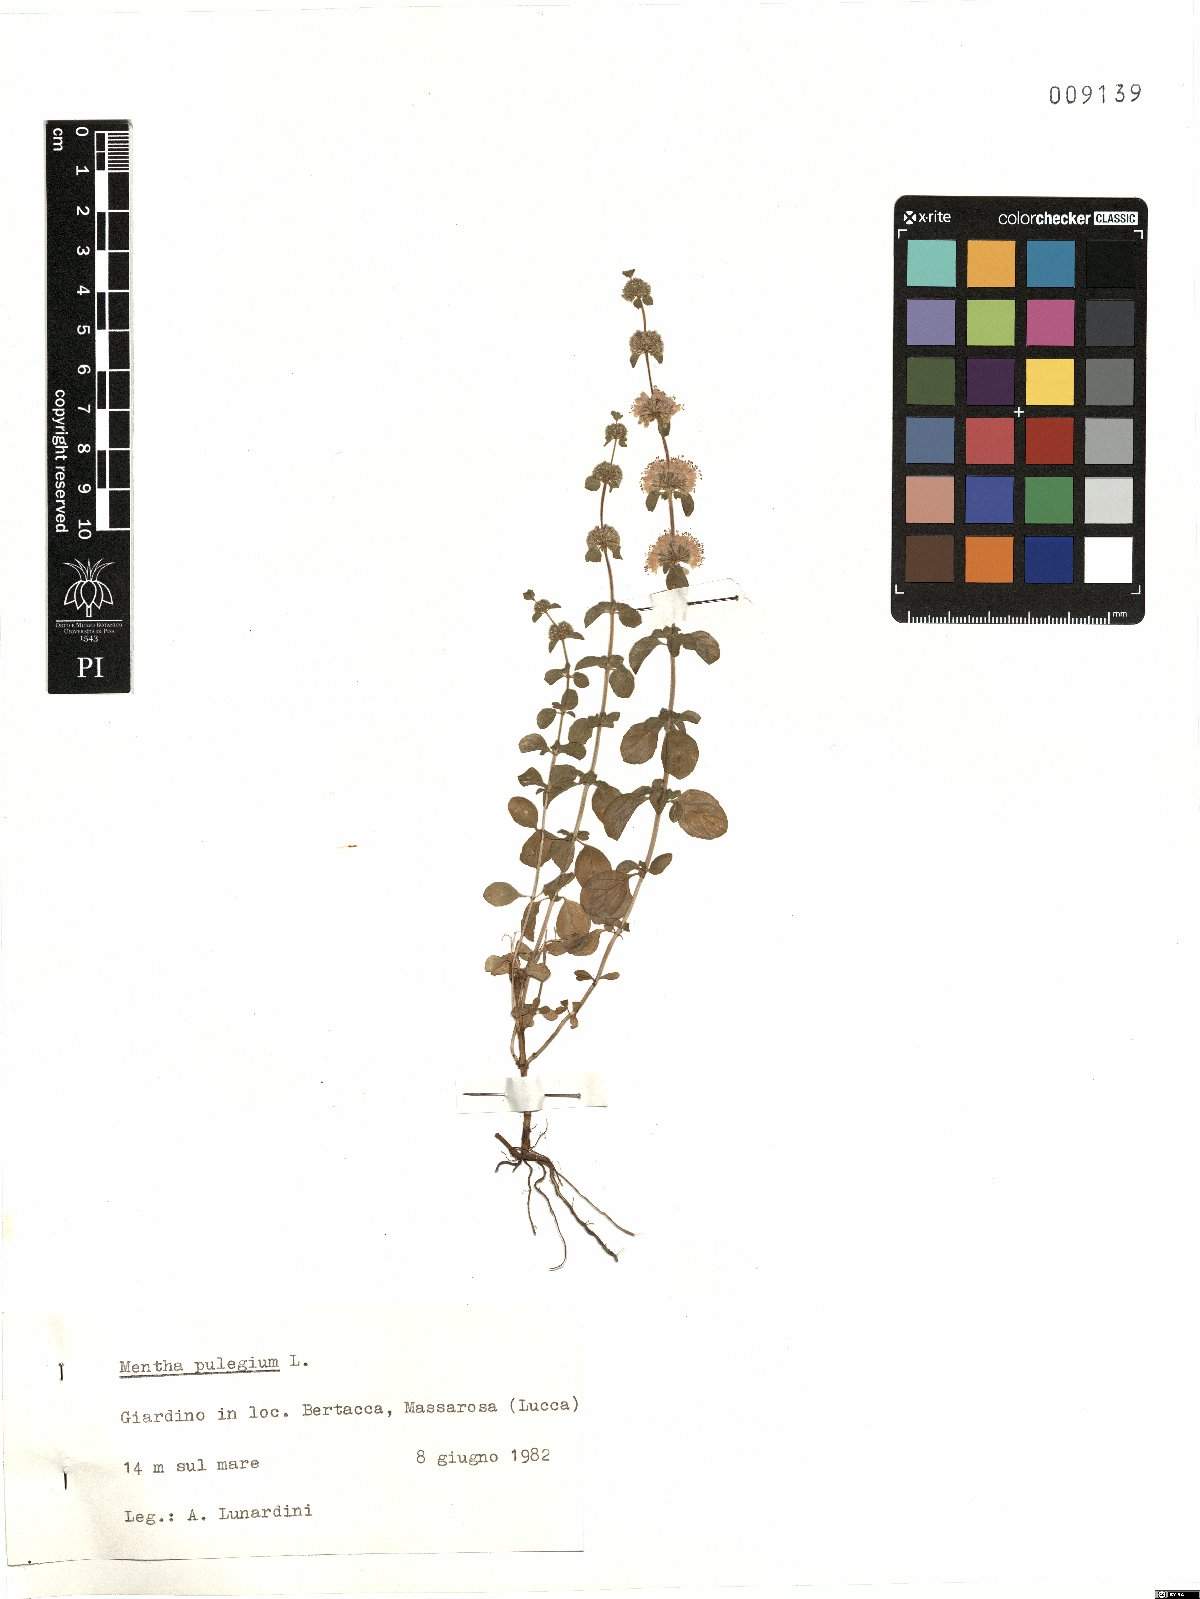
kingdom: Plantae
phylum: Tracheophyta
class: Magnoliopsida
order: Lamiales
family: Lamiaceae
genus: Mentha
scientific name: Mentha pulegium
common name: Pennyroyal
